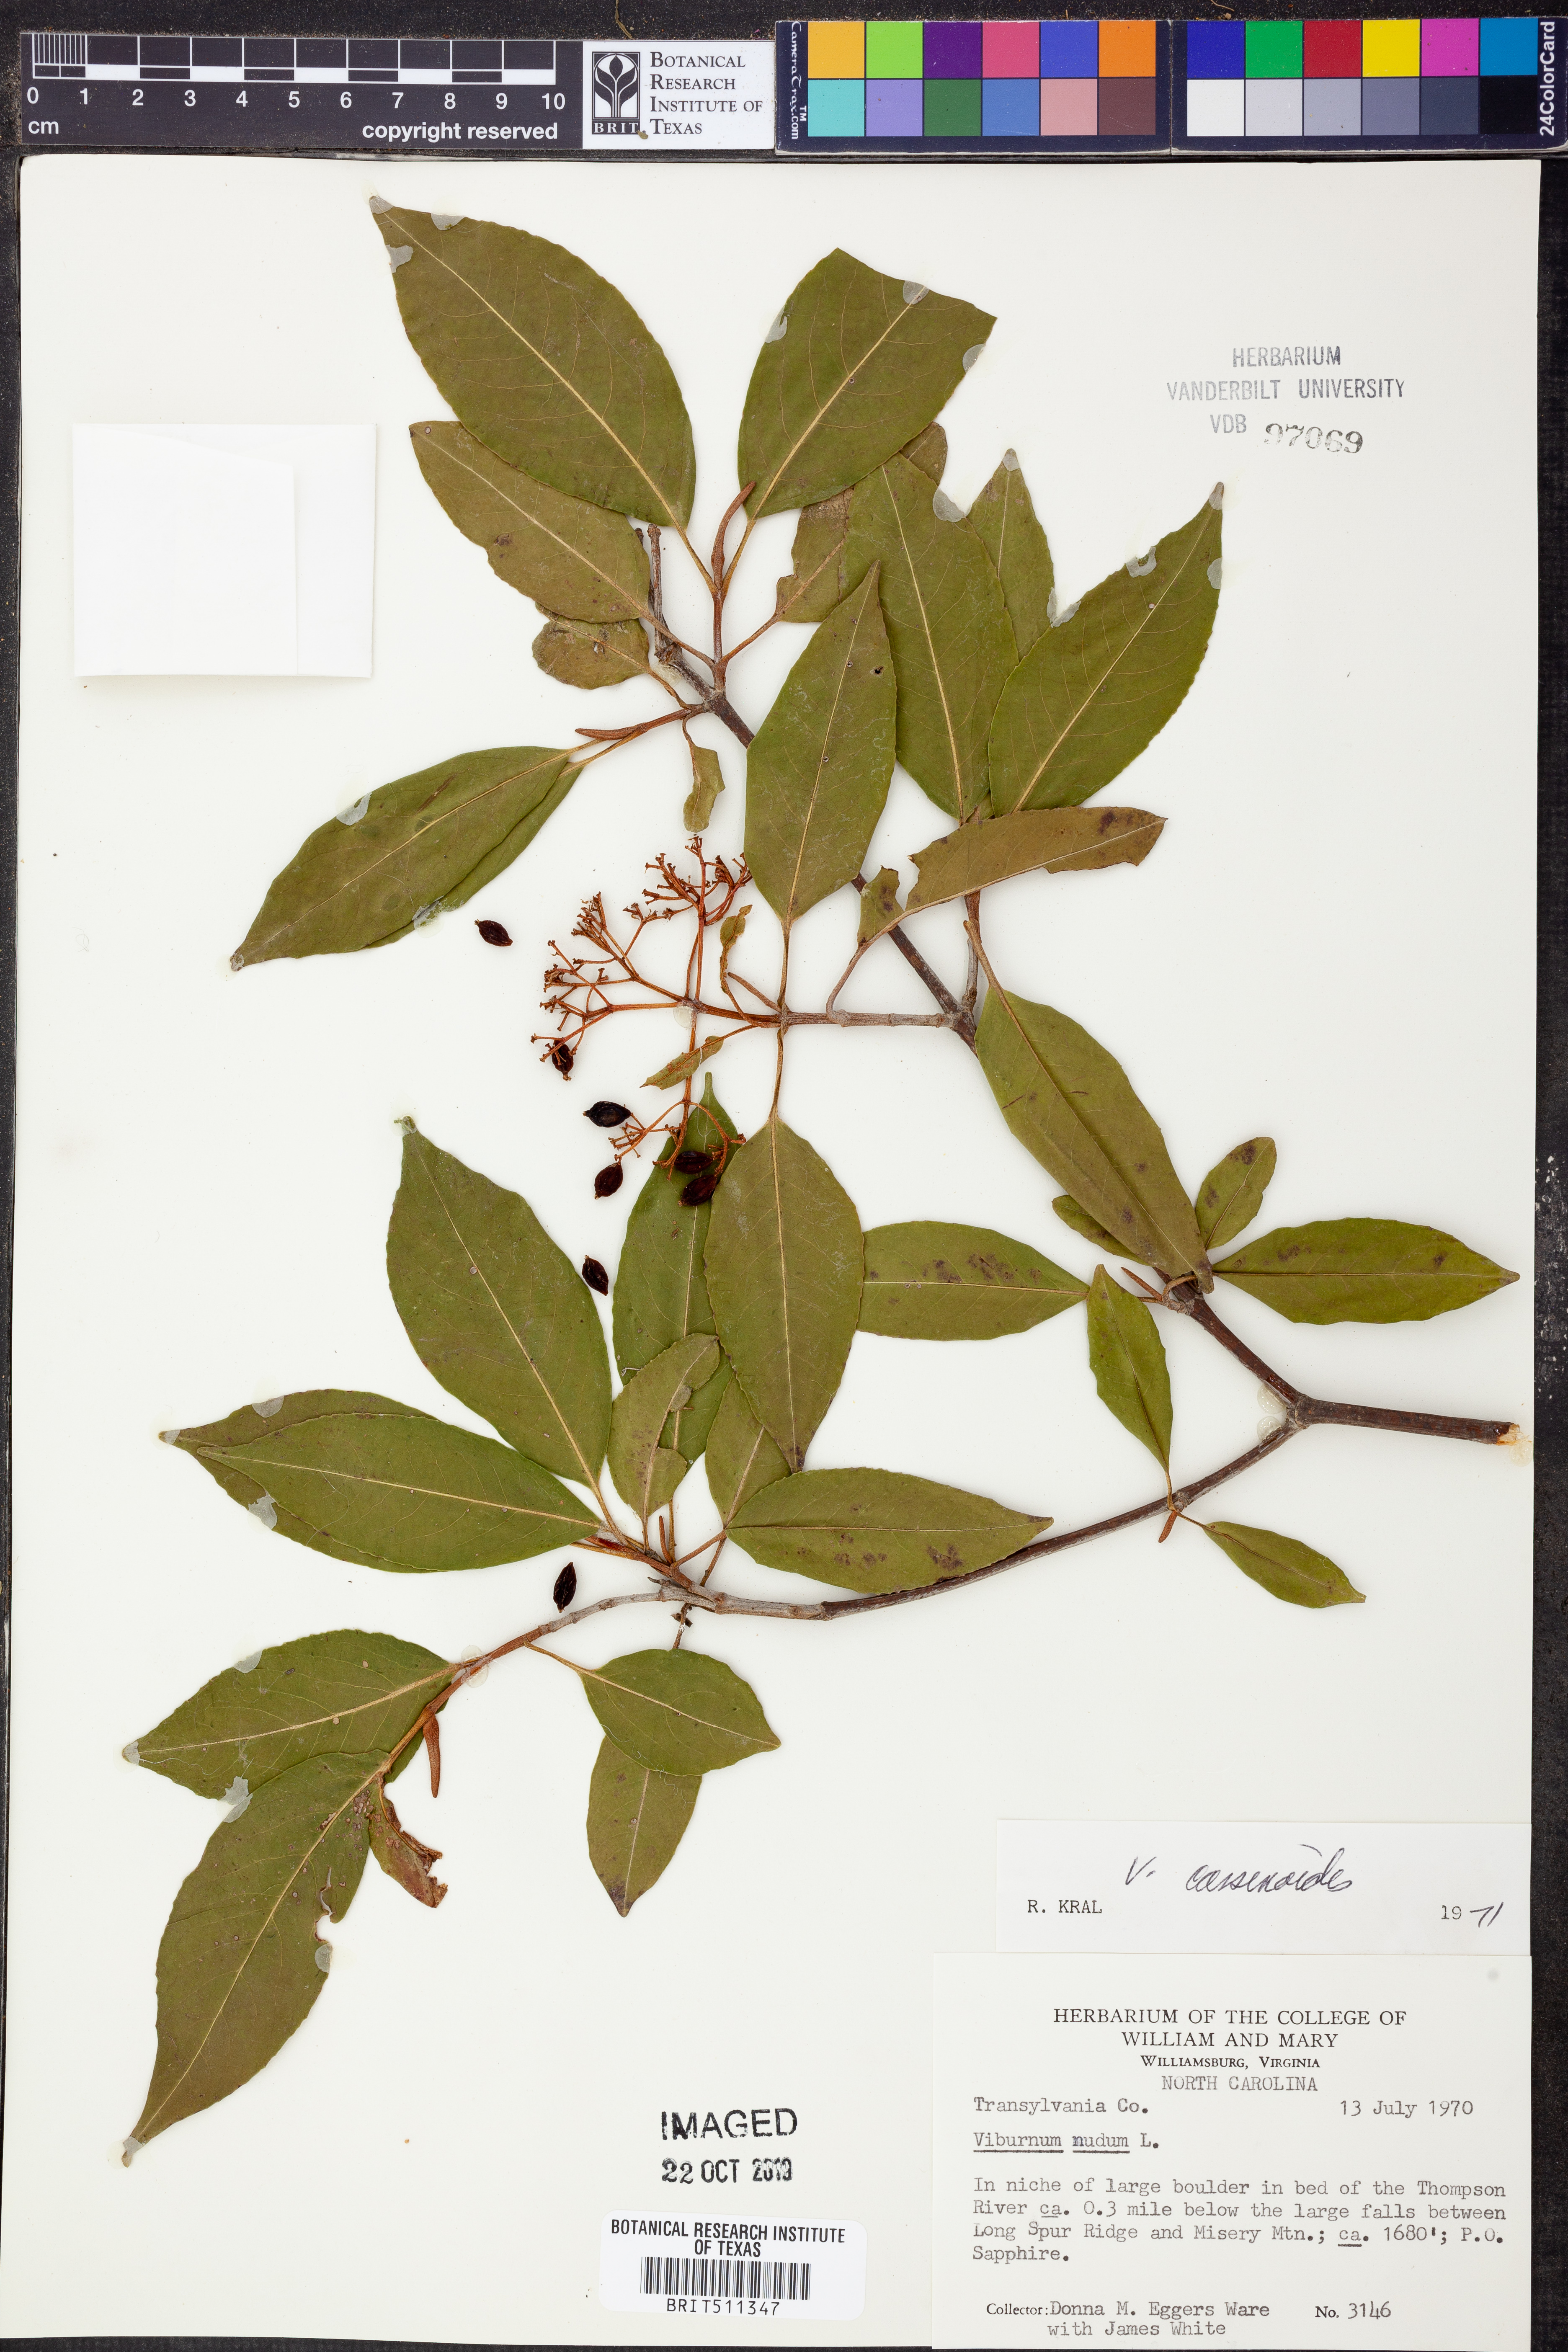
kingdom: Plantae
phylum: Tracheophyta
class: Magnoliopsida
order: Dipsacales
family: Viburnaceae
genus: Viburnum
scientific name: Viburnum cassinoides
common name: Swamp haw
